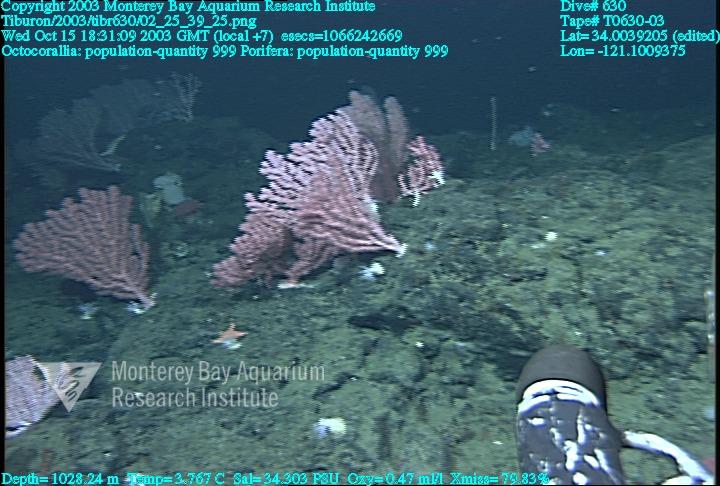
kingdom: Animalia
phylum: Porifera
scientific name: Porifera
